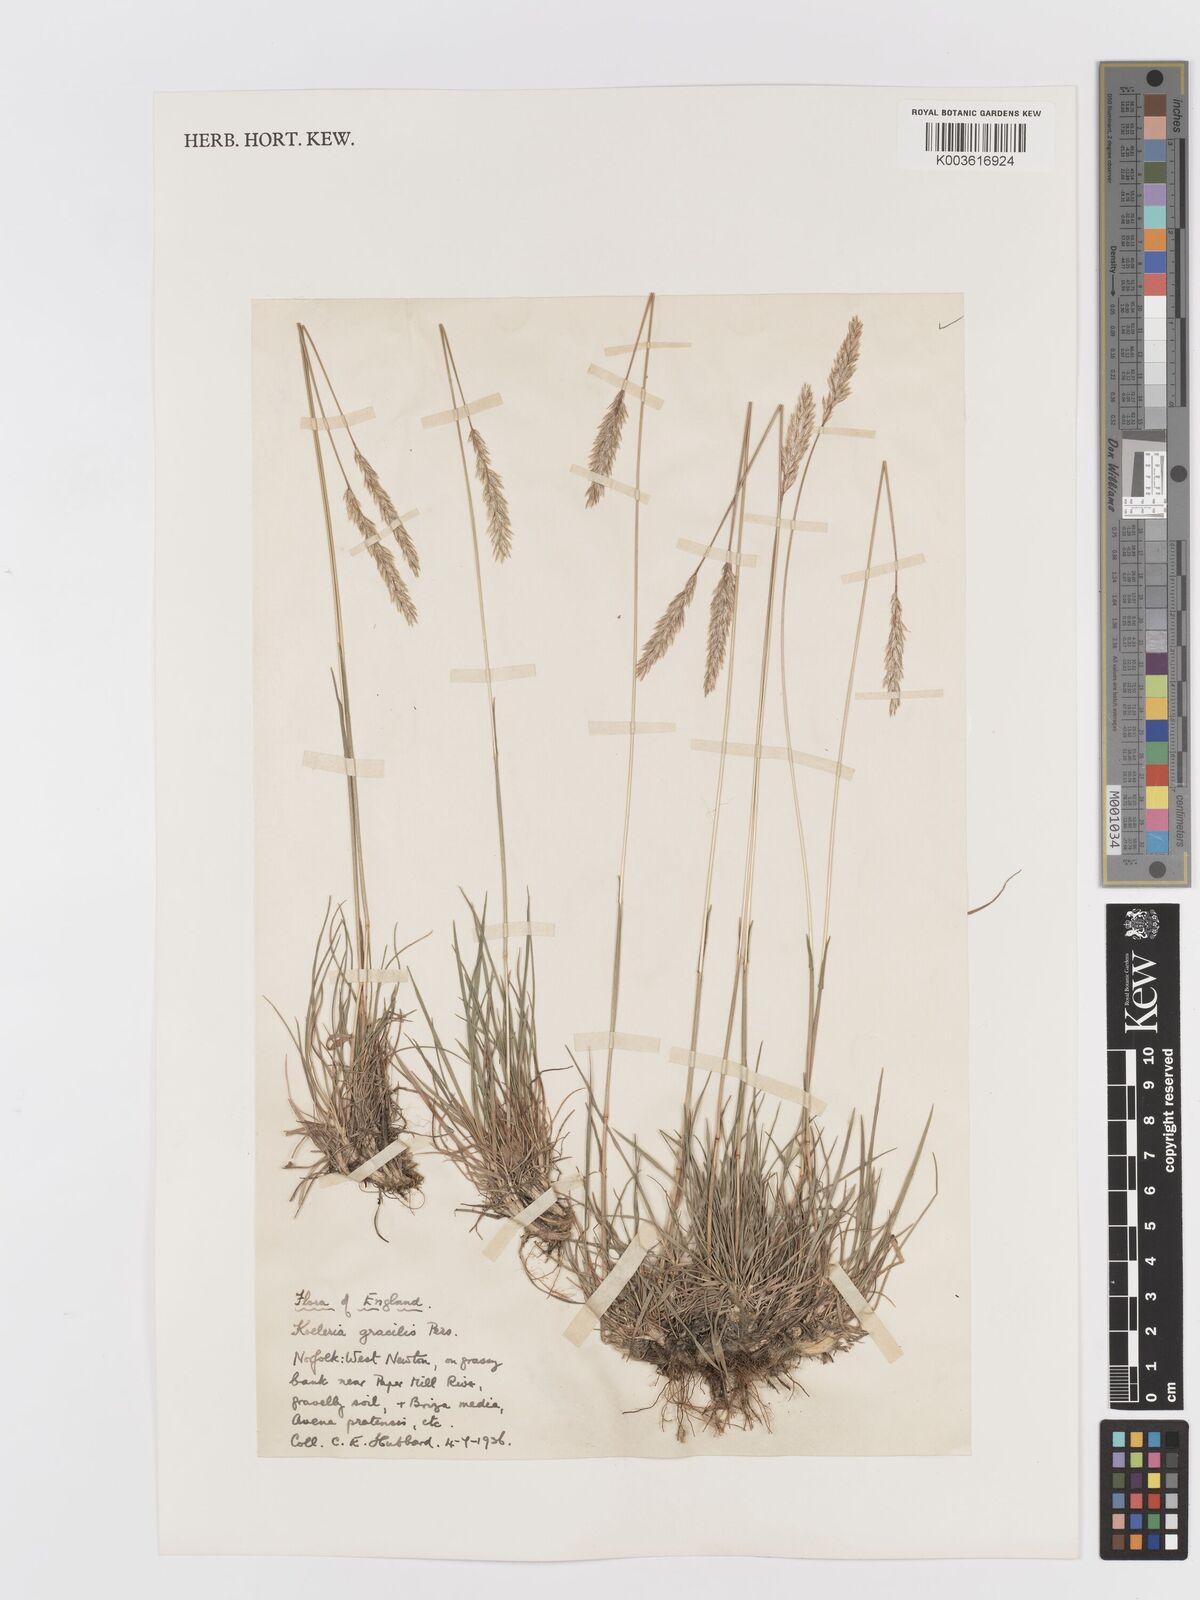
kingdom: Plantae
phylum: Tracheophyta
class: Liliopsida
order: Poales
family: Poaceae
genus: Koeleria
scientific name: Koeleria macrantha
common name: Crested hair-grass
